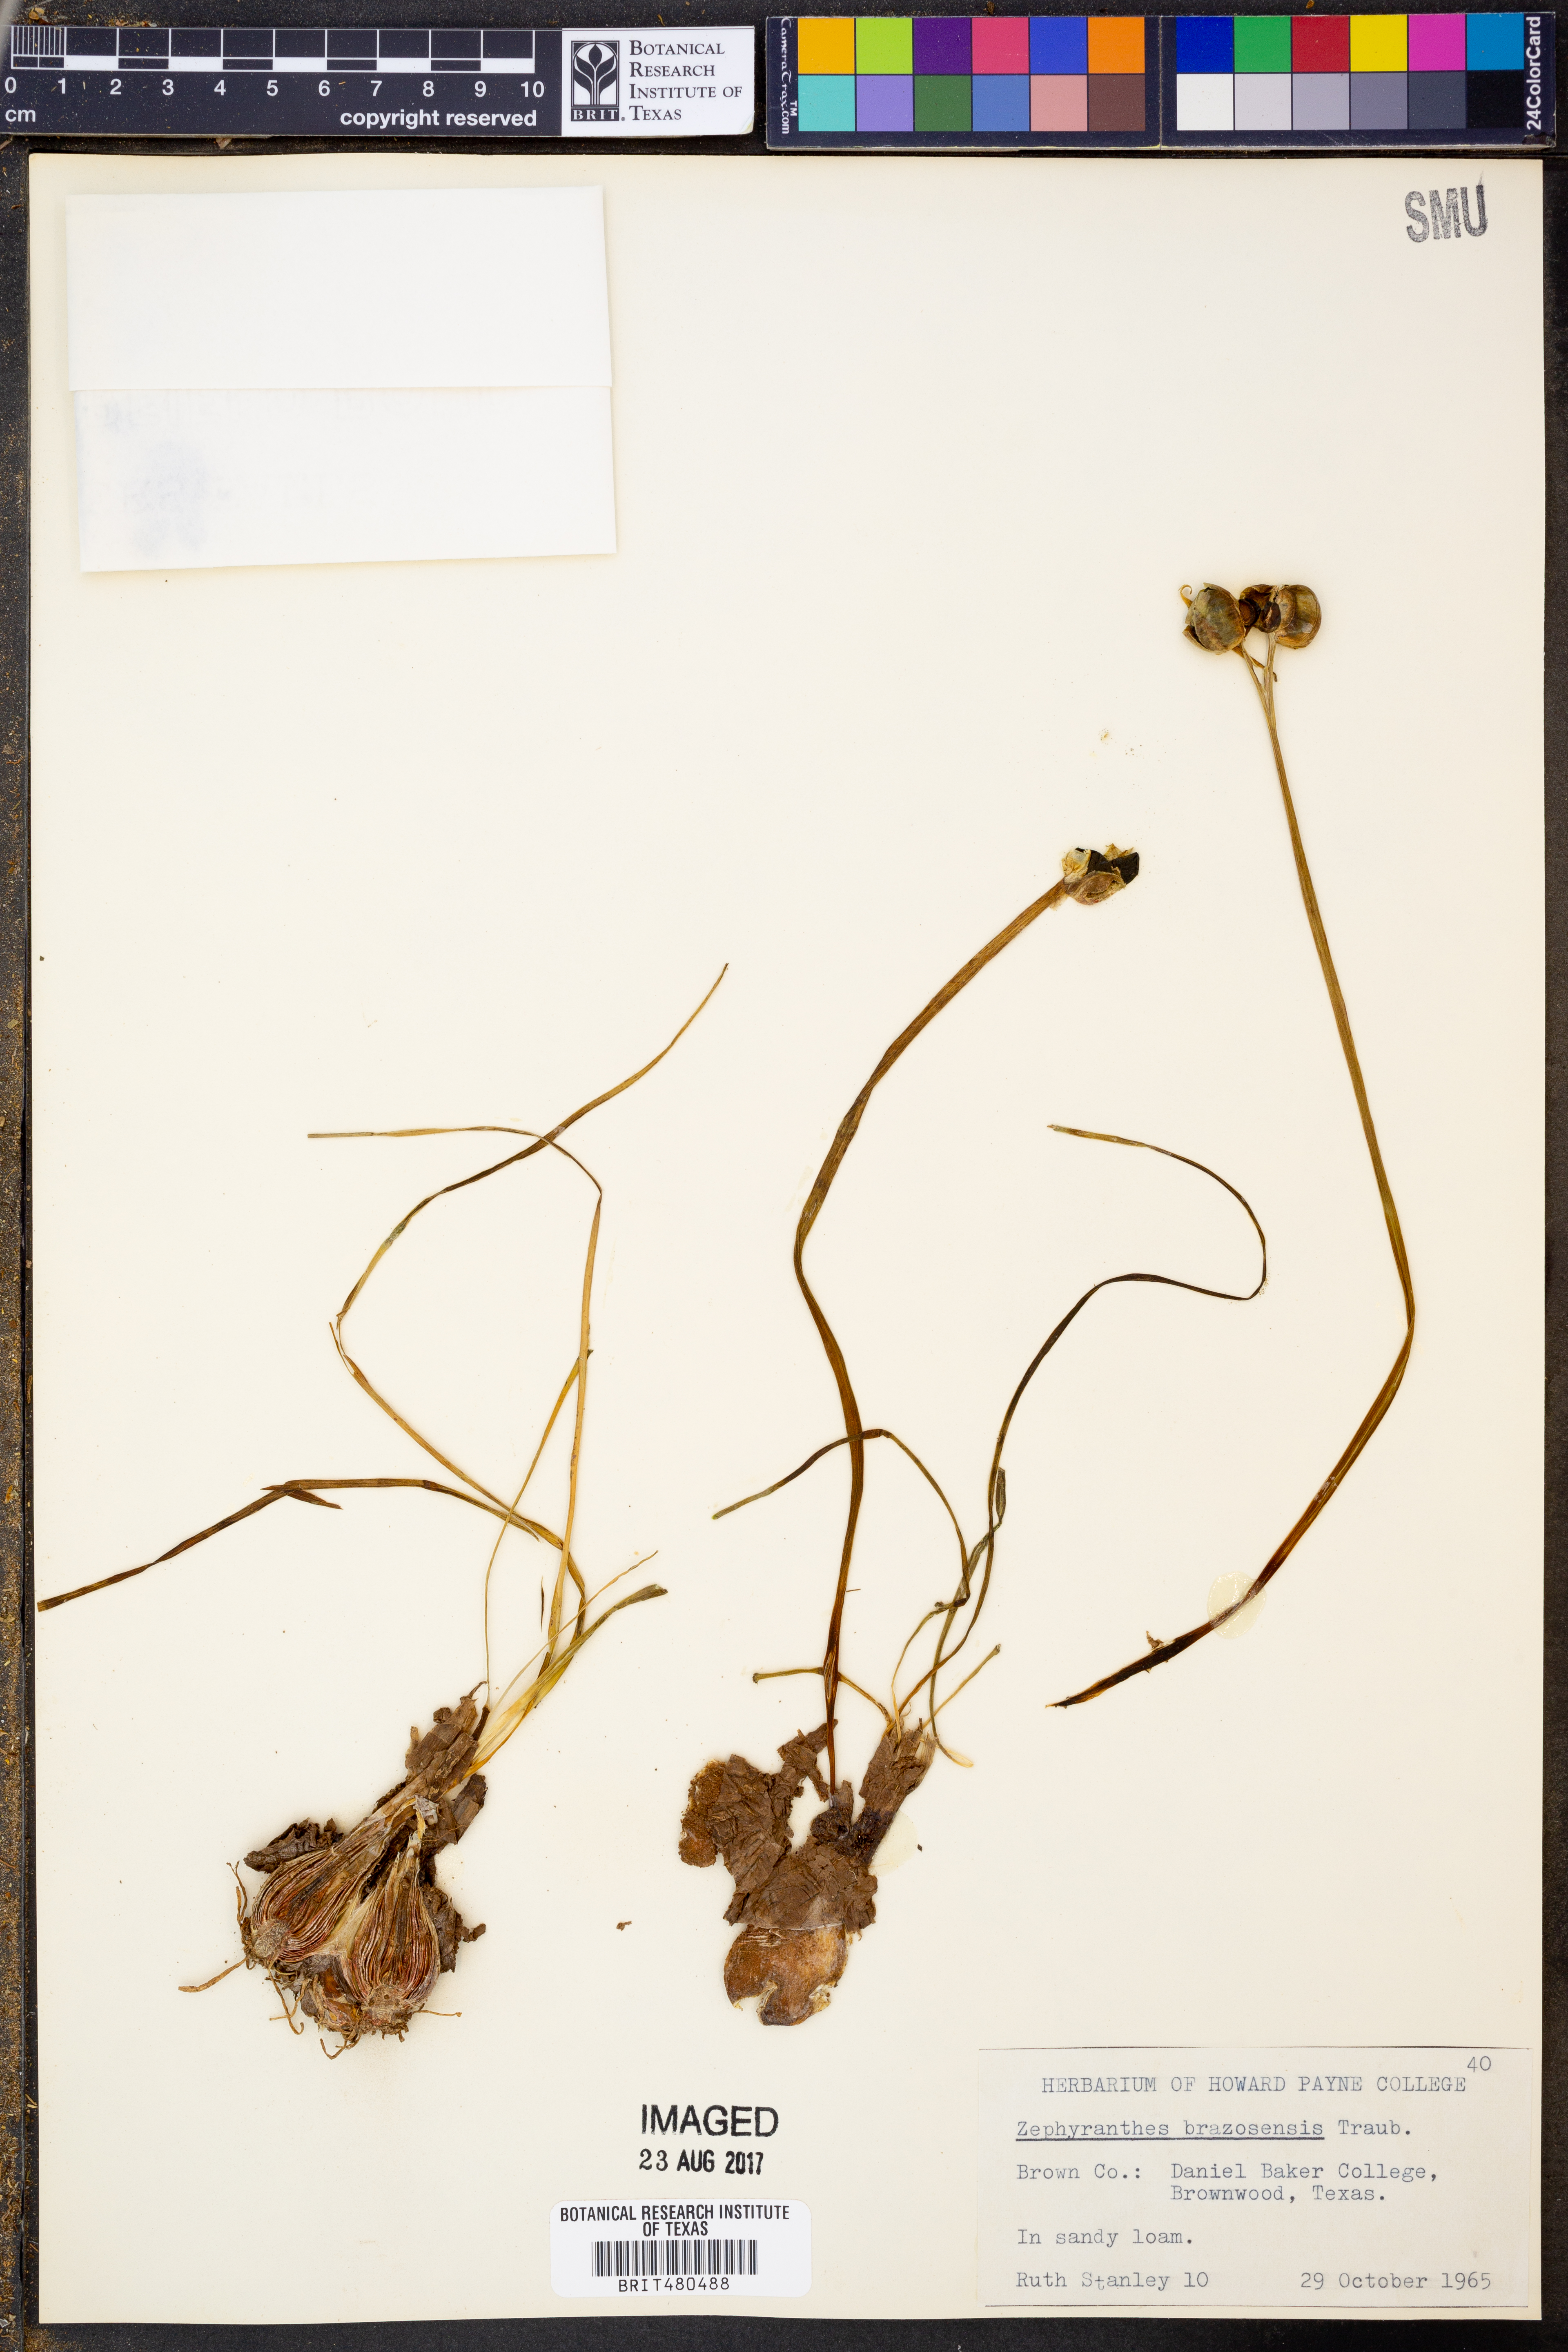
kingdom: Plantae
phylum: Tracheophyta
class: Liliopsida
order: Asparagales
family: Amaryllidaceae
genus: Zephyranthes
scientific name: Zephyranthes chlorosolen
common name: Evening rain-lily
